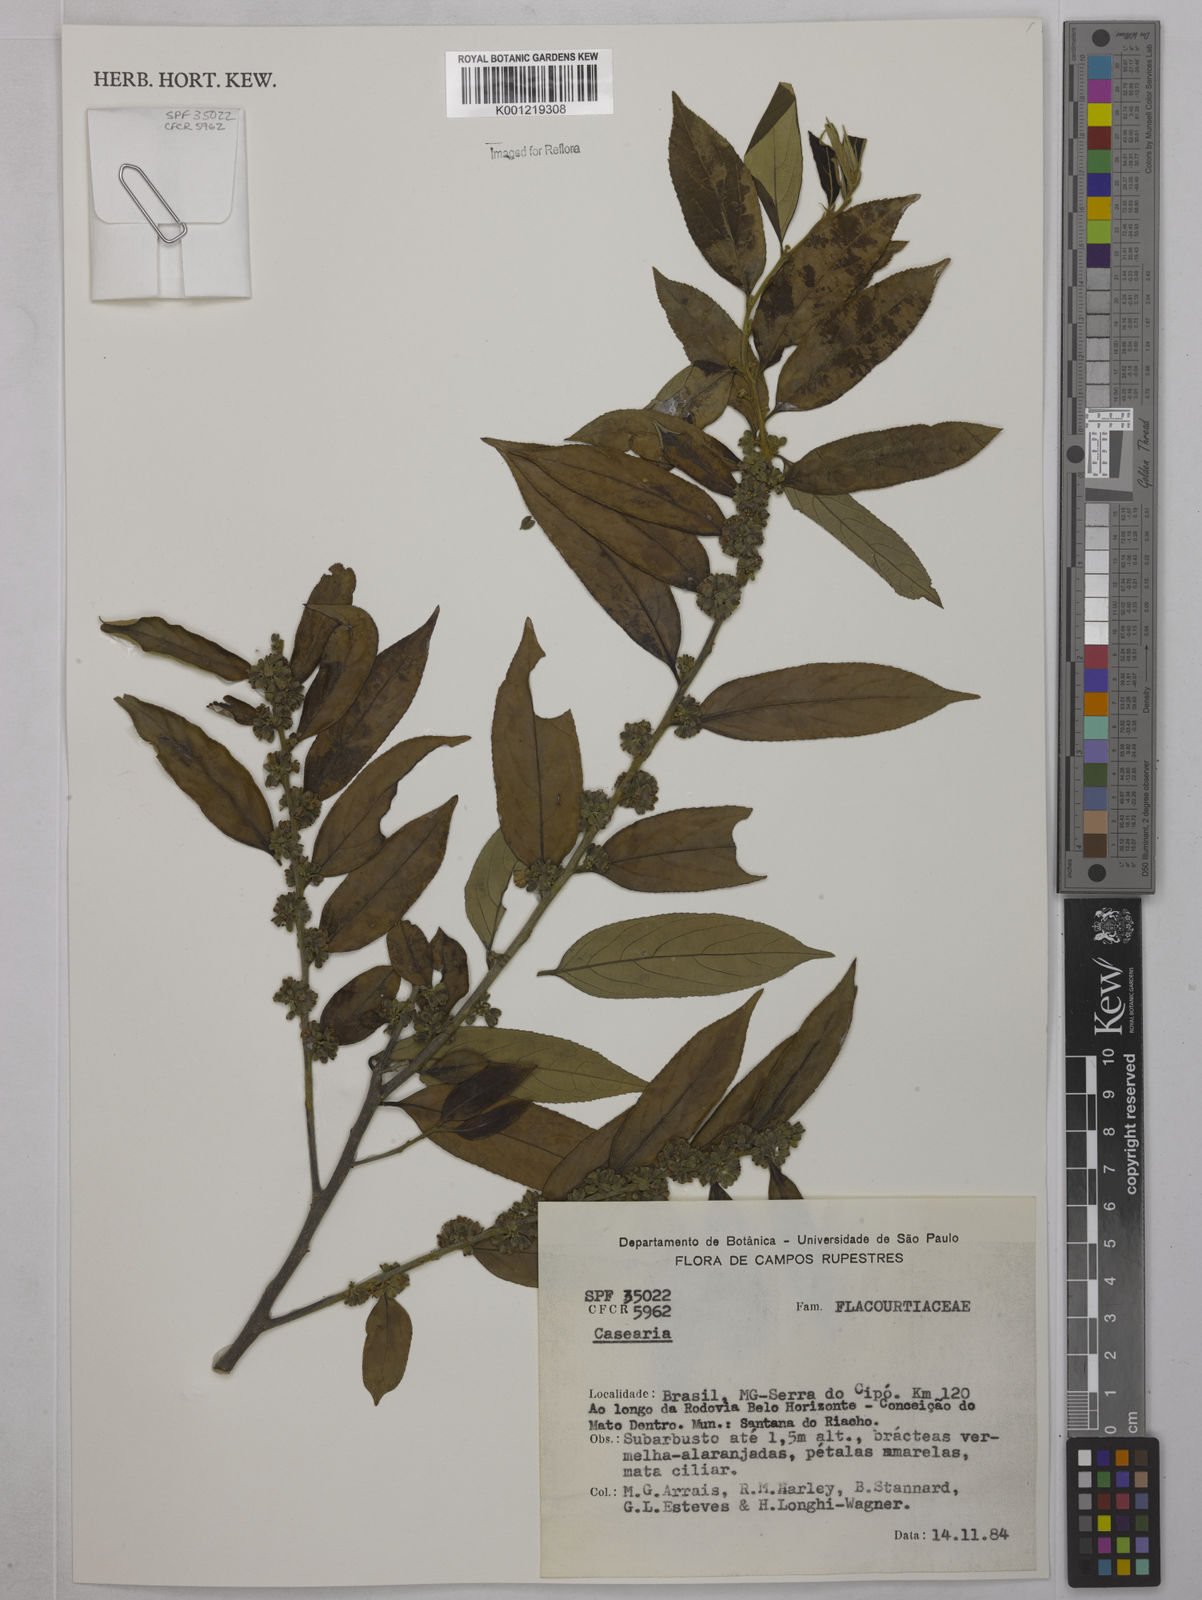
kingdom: Plantae
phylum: Tracheophyta
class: Magnoliopsida
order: Malpighiales
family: Salicaceae
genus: Casearia
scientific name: Casearia
